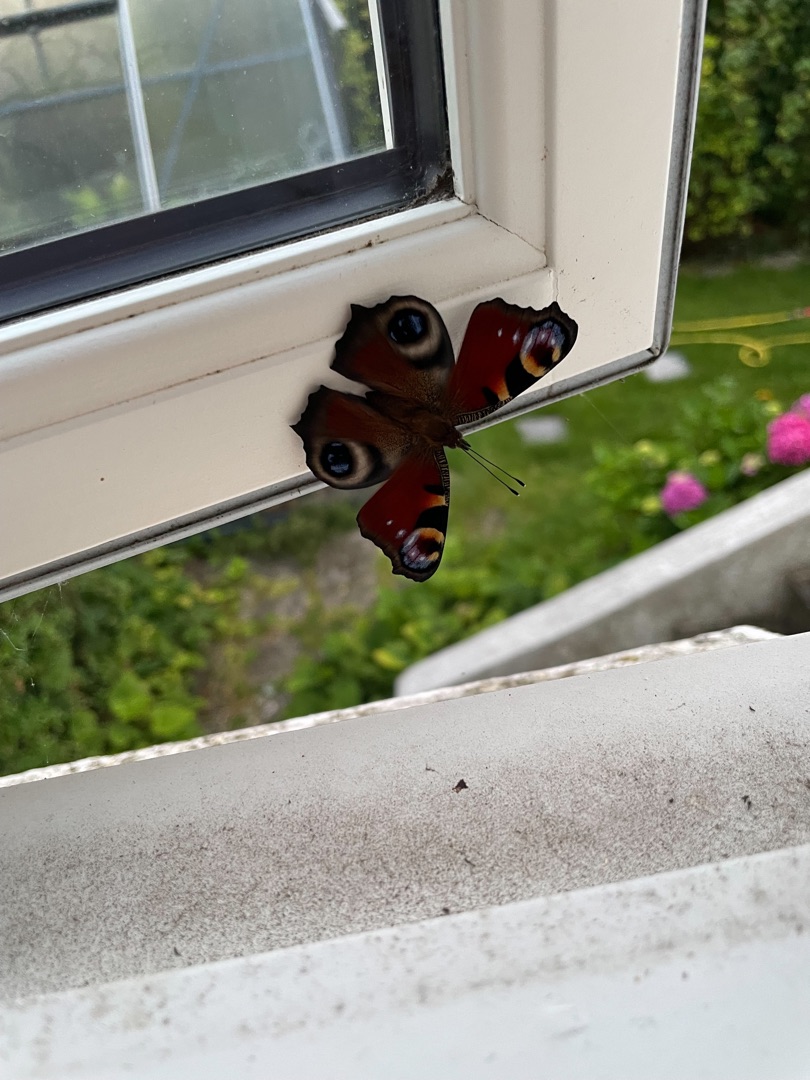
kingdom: Animalia
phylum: Arthropoda
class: Insecta
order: Lepidoptera
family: Nymphalidae
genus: Aglais
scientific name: Aglais io
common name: Dagpåfugleøje
